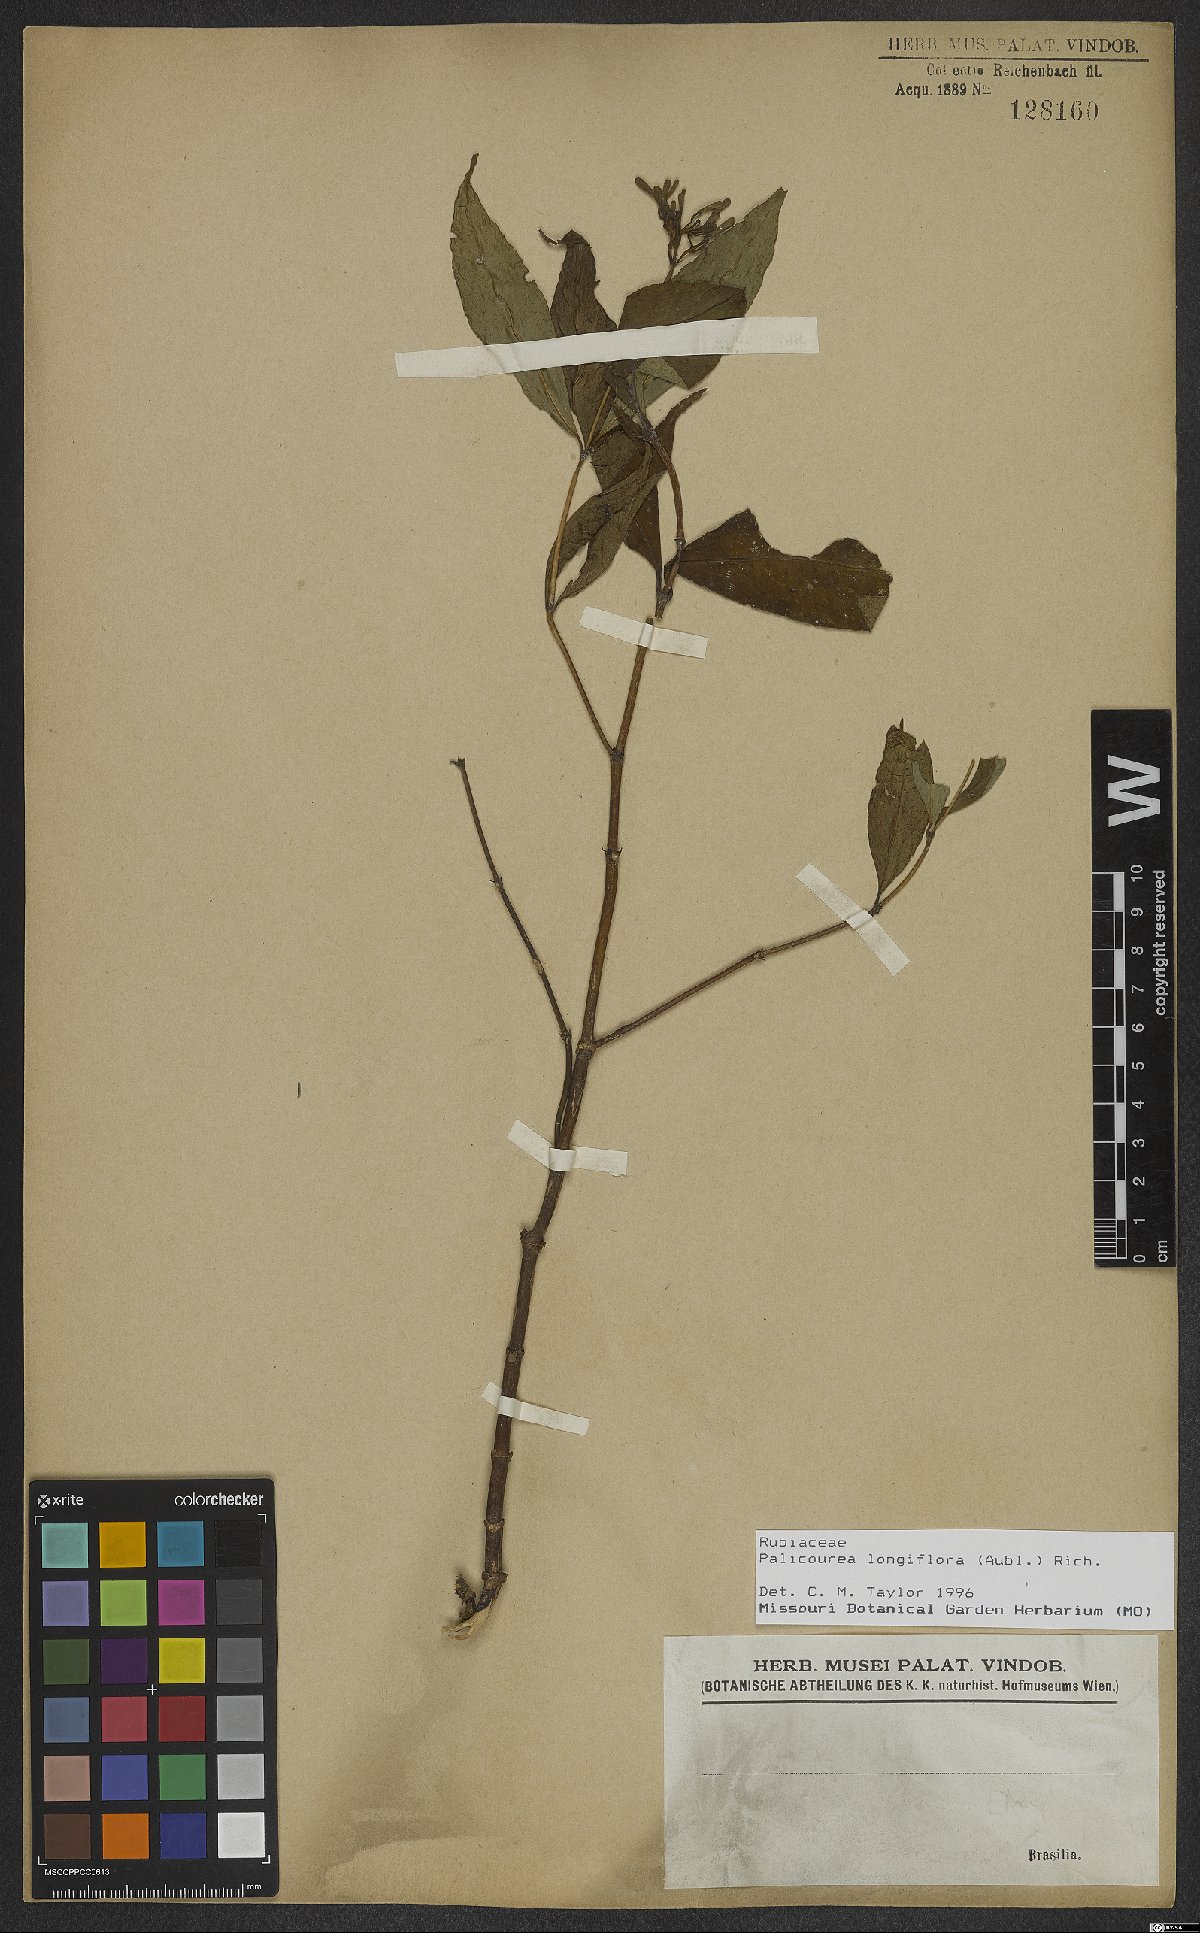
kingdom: Plantae
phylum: Tracheophyta
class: Magnoliopsida
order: Gentianales
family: Rubiaceae
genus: Palicourea
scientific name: Palicourea longiflora
